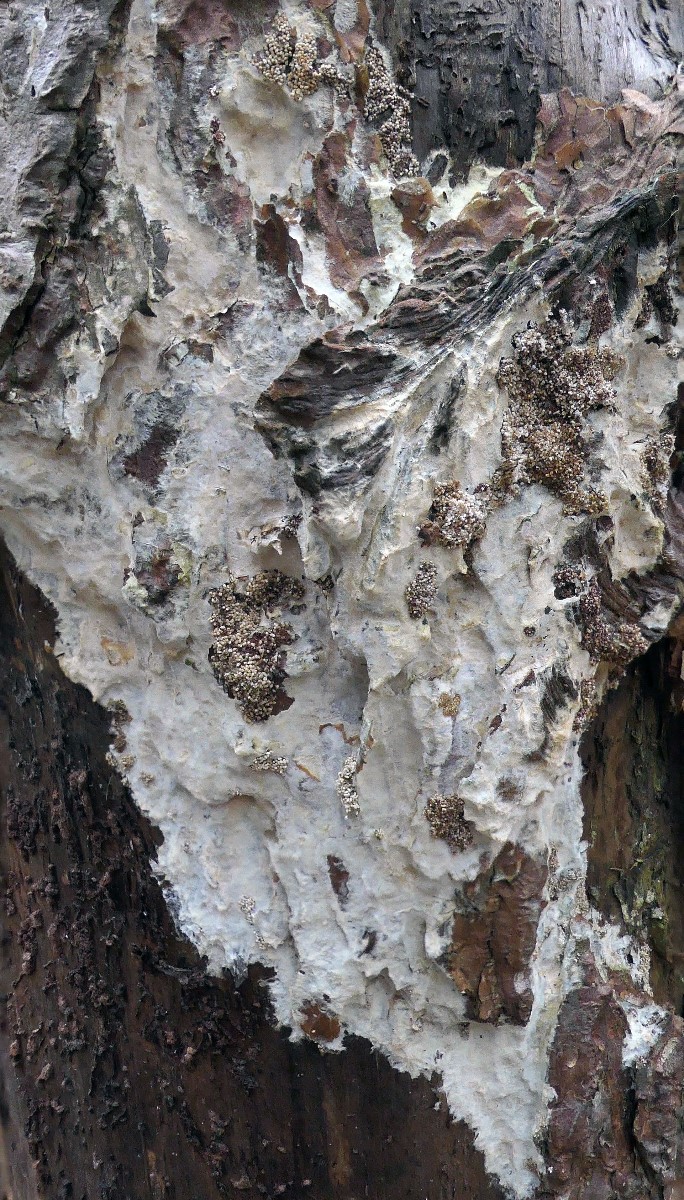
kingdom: Fungi
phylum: Basidiomycota
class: Agaricomycetes
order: Polyporales
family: Phanerochaetaceae
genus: Phlebiopsis
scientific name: Phlebiopsis gigantea
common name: kæmpebarksvamp
